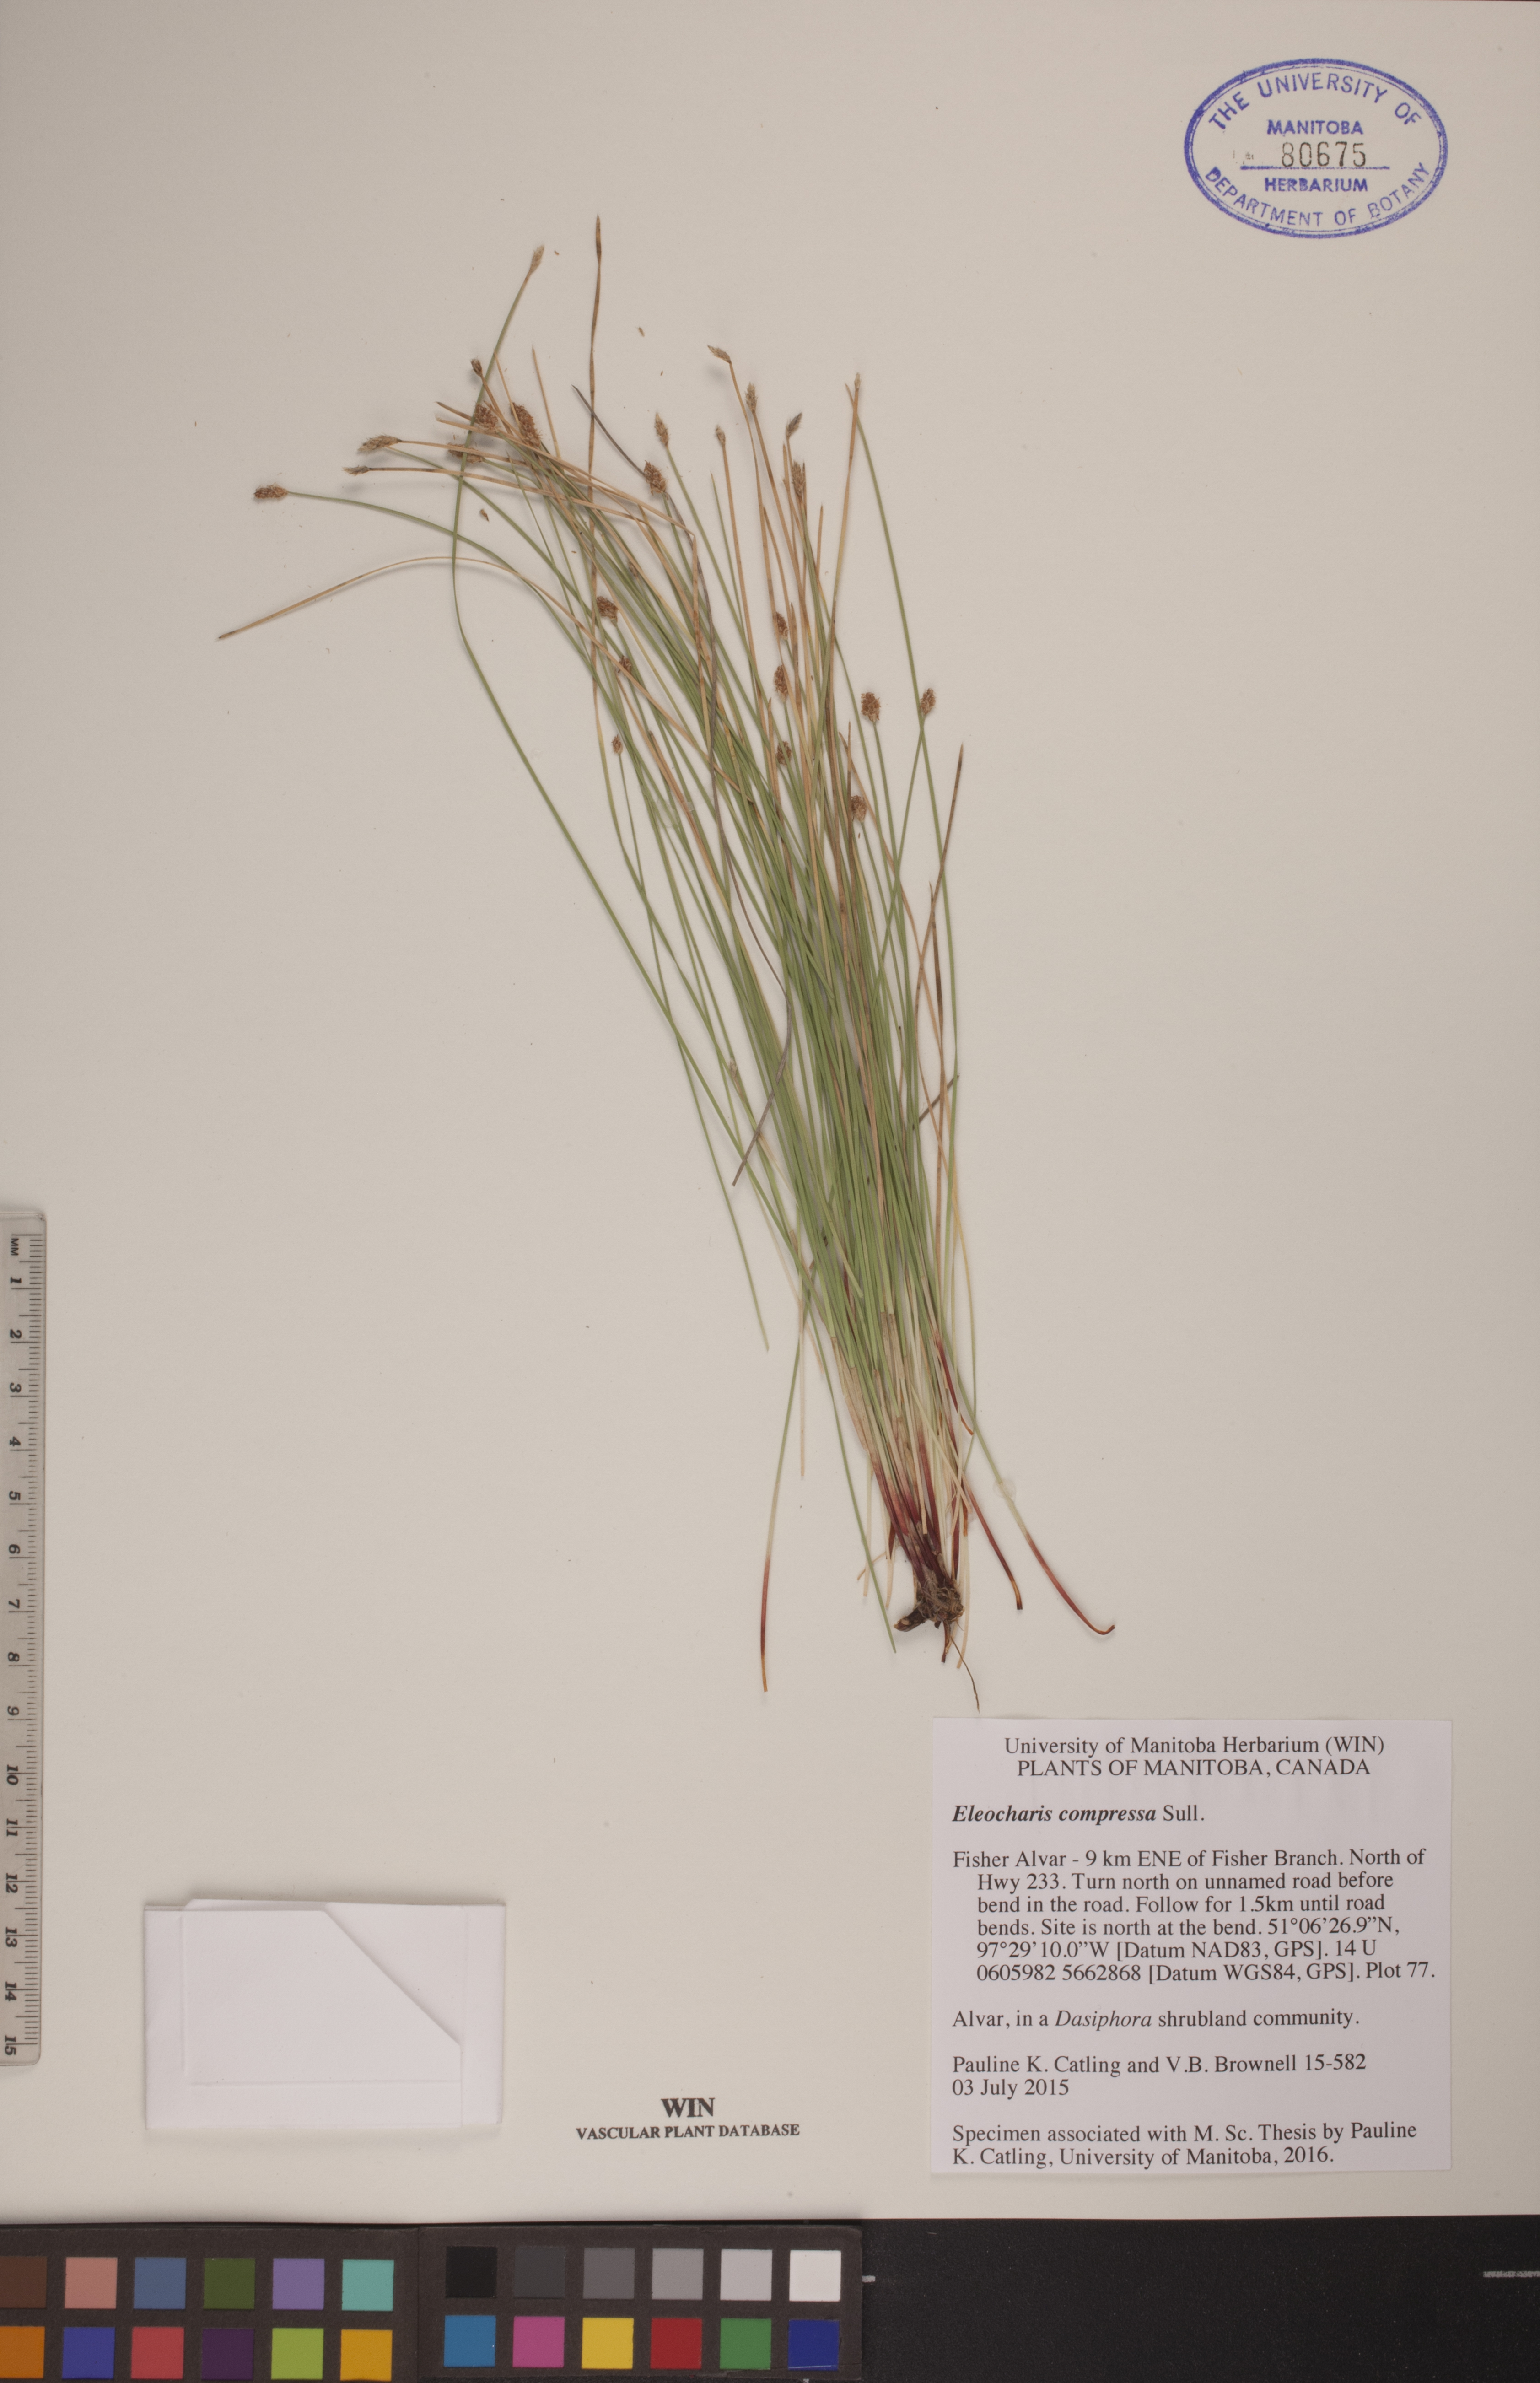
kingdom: Plantae
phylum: Tracheophyta
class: Liliopsida
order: Poales
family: Cyperaceae
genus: Eleocharis
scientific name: Eleocharis compressa
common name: Flat-stem spike-rush
